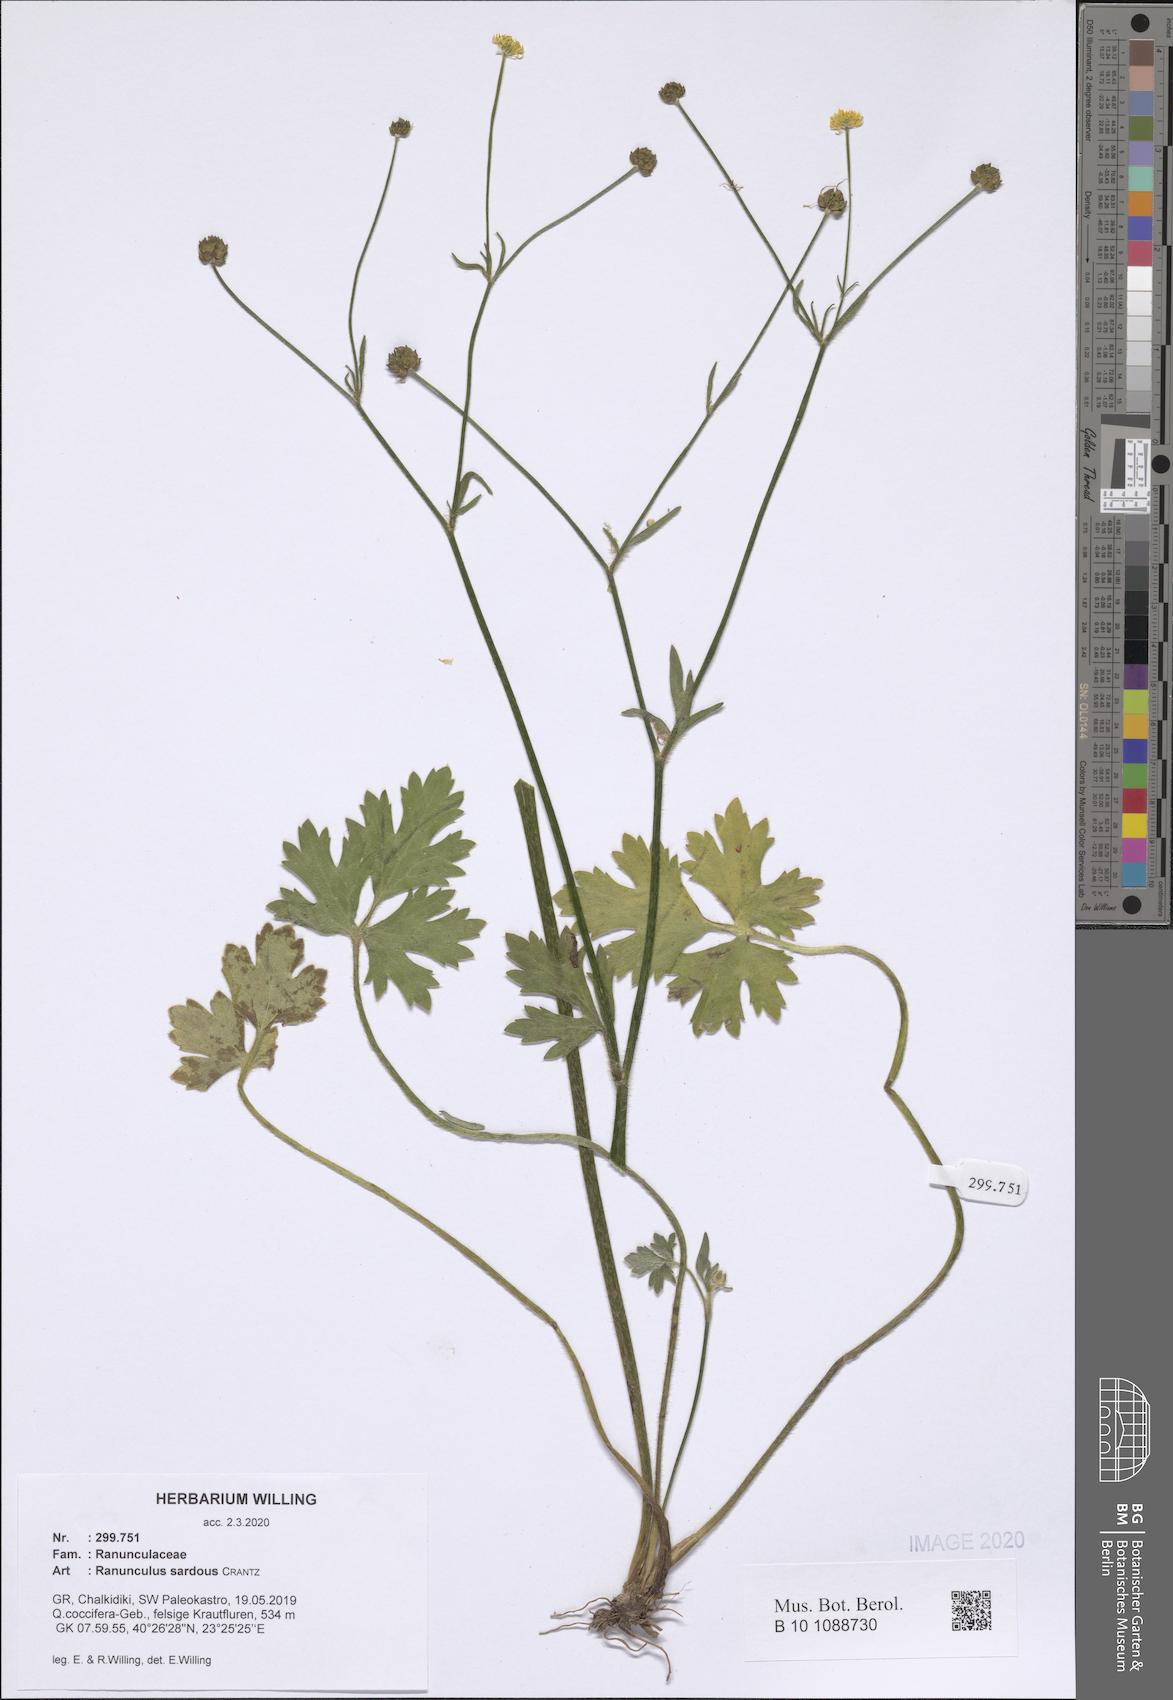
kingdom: Plantae
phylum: Tracheophyta
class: Magnoliopsida
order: Ranunculales
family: Ranunculaceae
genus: Ranunculus
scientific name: Ranunculus sardous
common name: Hairy buttercup
